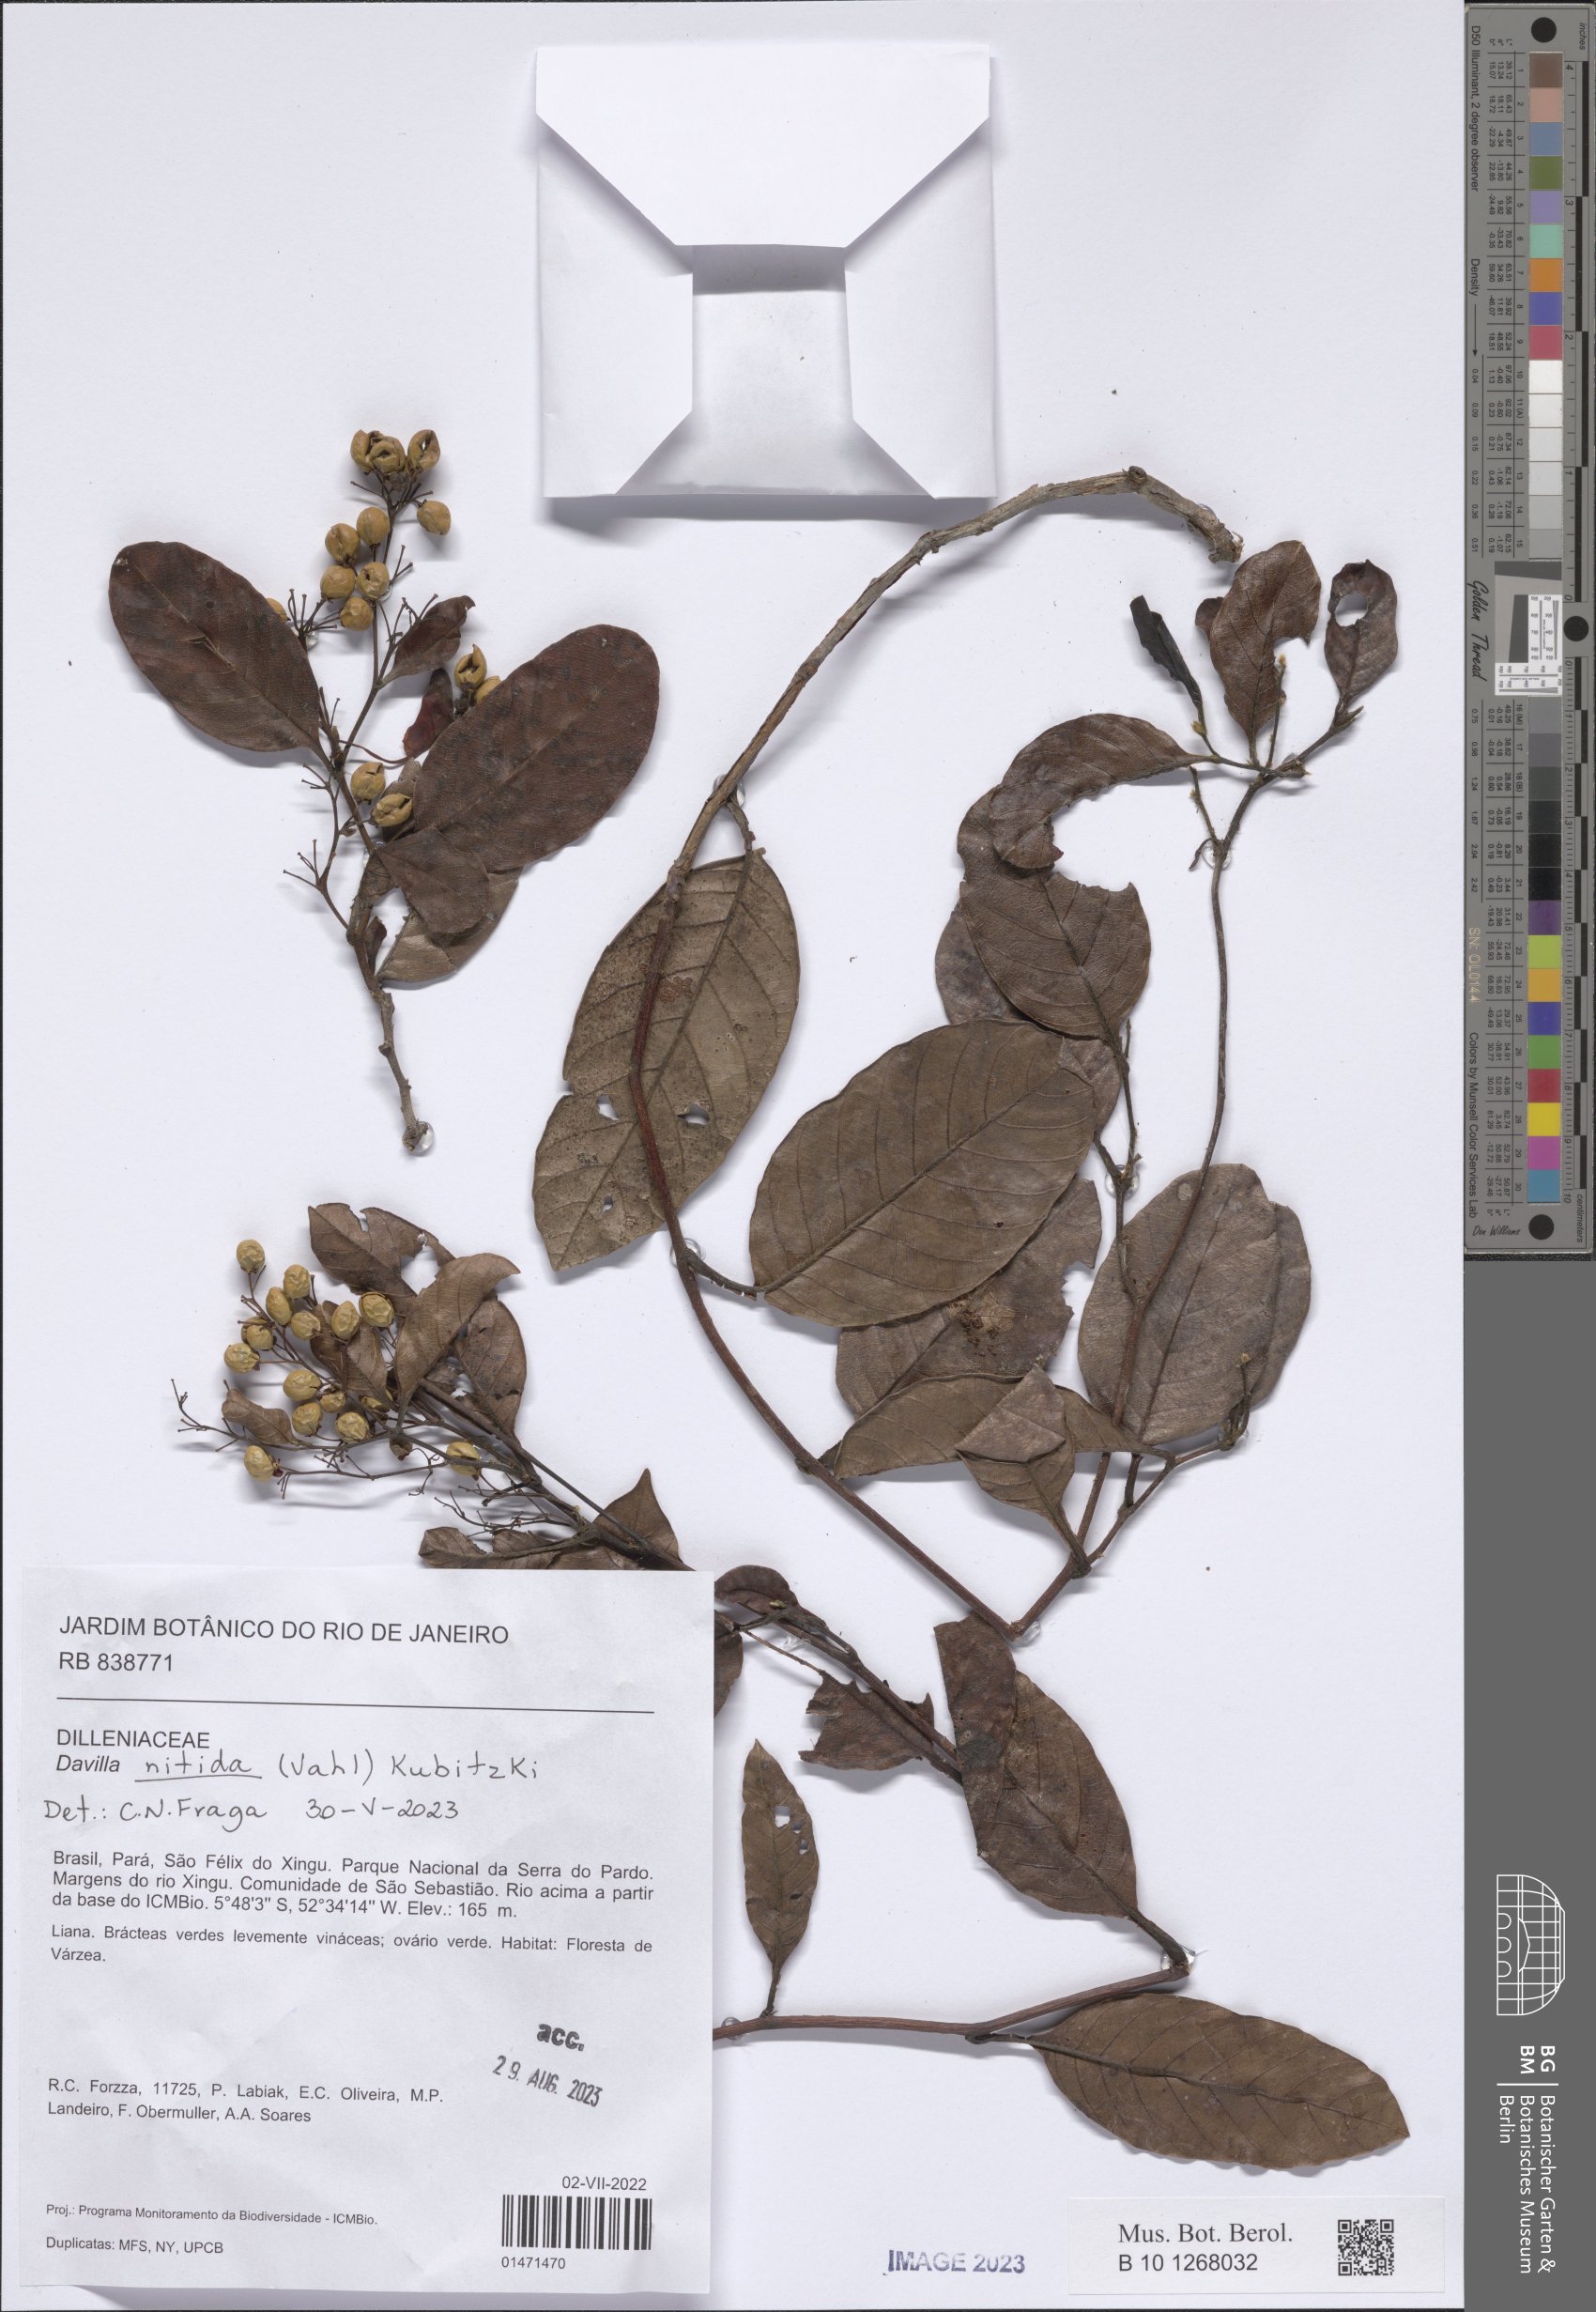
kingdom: Plantae
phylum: Tracheophyta
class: Magnoliopsida
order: Dilleniales
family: Dilleniaceae
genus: Davilla
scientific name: Davilla nitida
